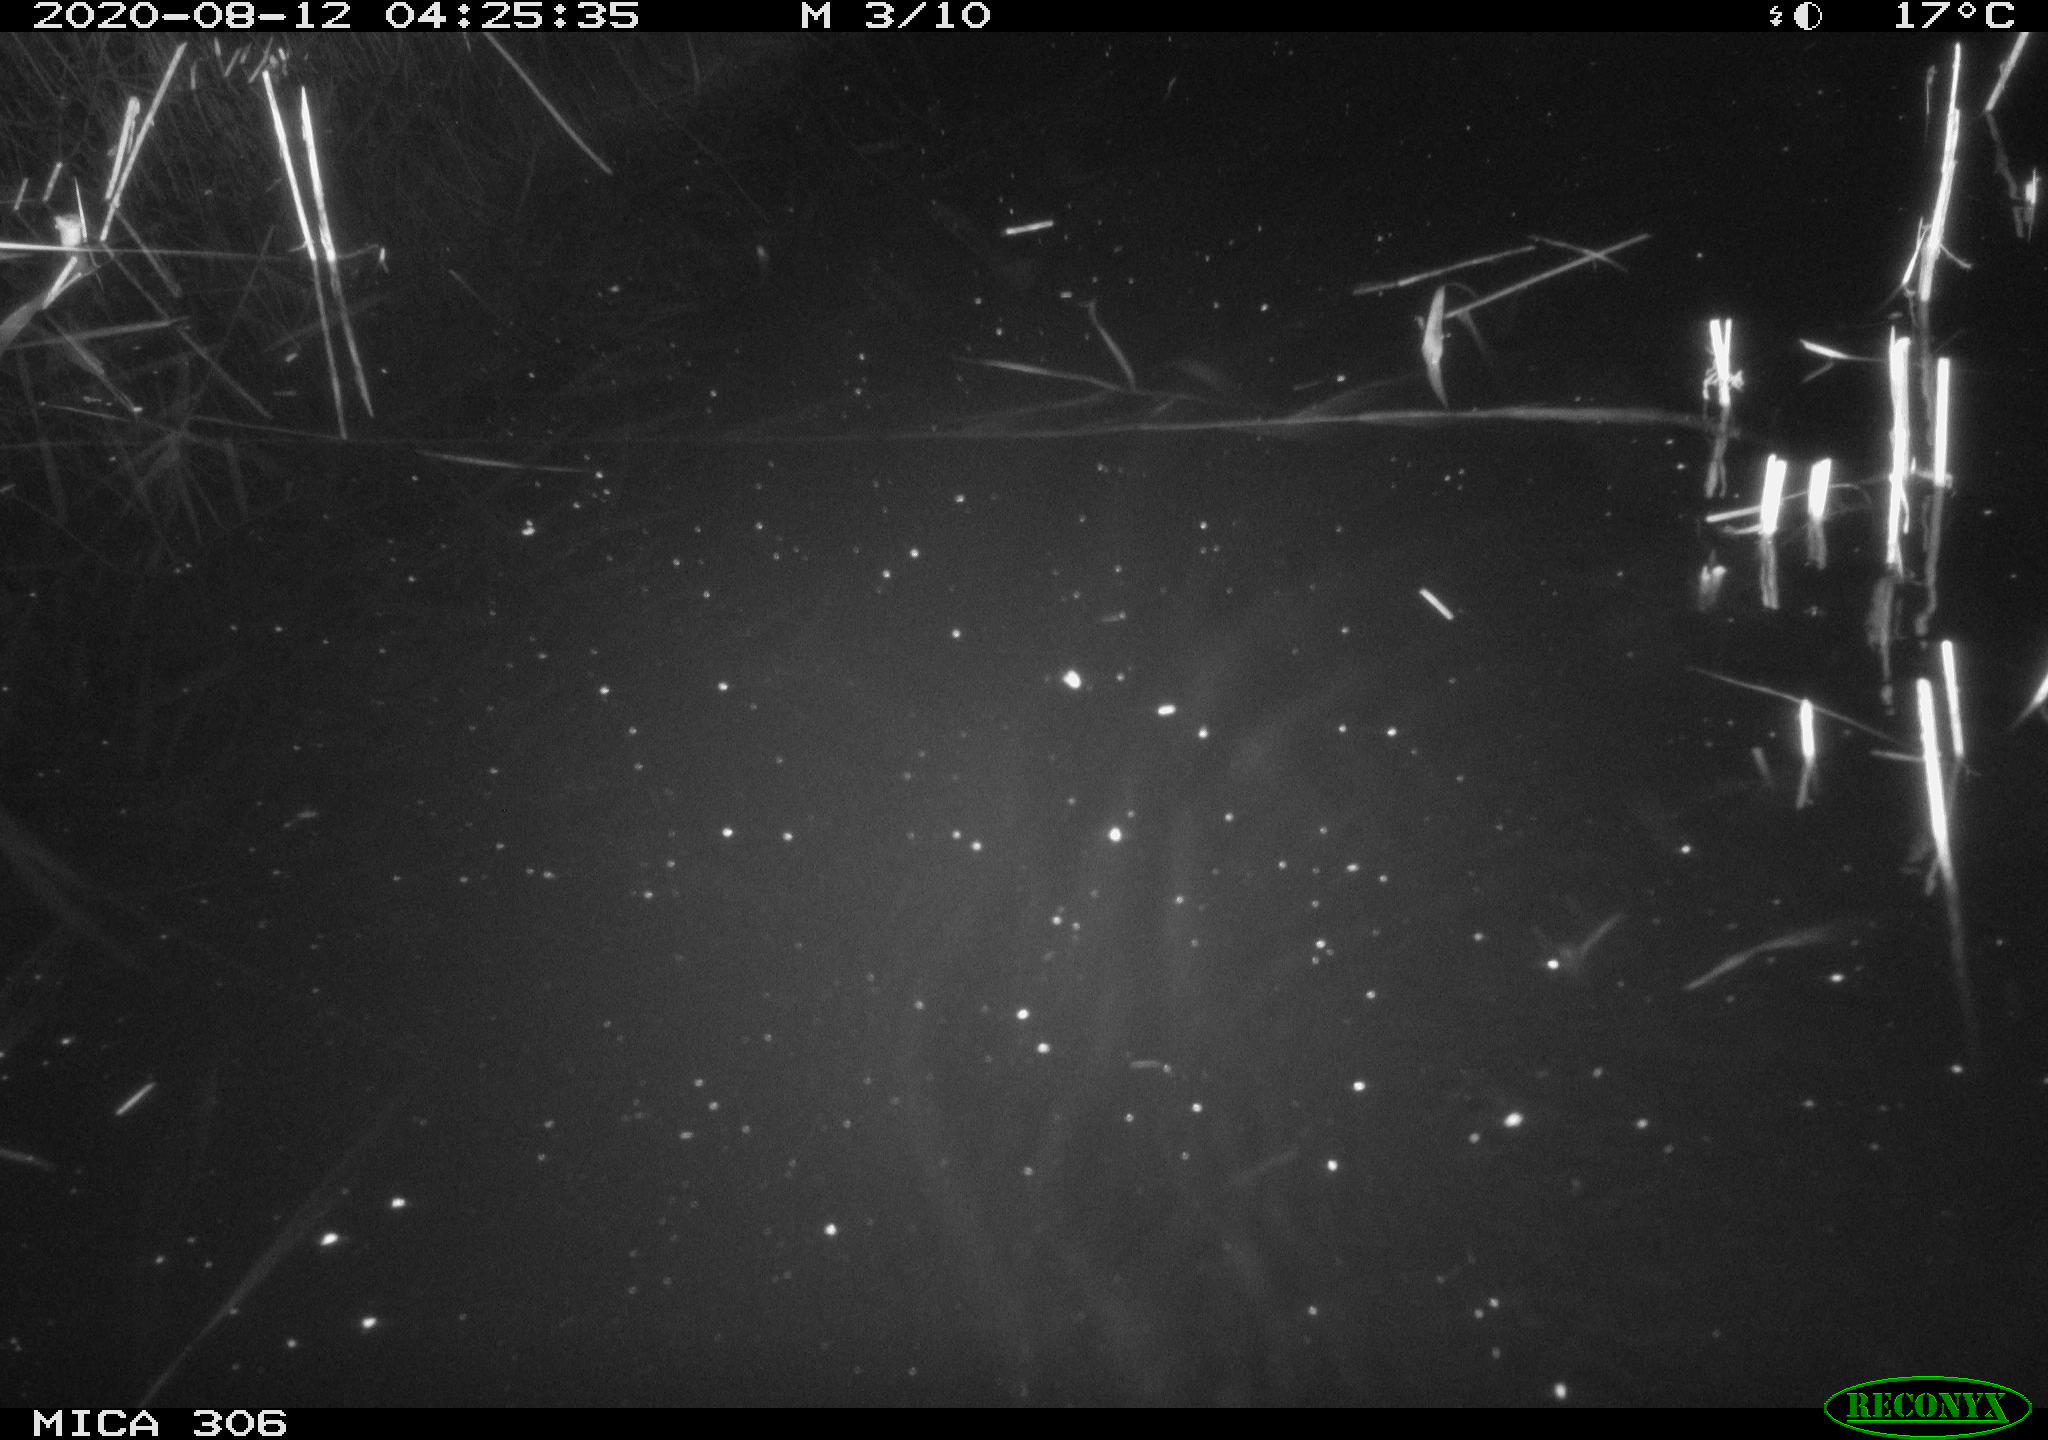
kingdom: Animalia
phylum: Chordata
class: Mammalia
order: Rodentia
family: Muridae
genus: Rattus
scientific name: Rattus norvegicus
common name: Brown rat
